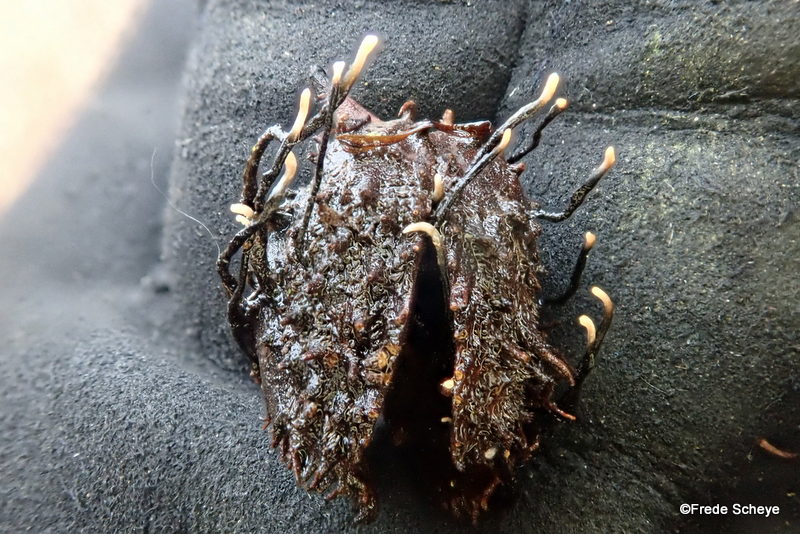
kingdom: Fungi
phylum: Ascomycota
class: Sordariomycetes
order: Xylariales
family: Xylariaceae
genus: Xylaria
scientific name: Xylaria carpophila
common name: bogskål-stødsvamp
